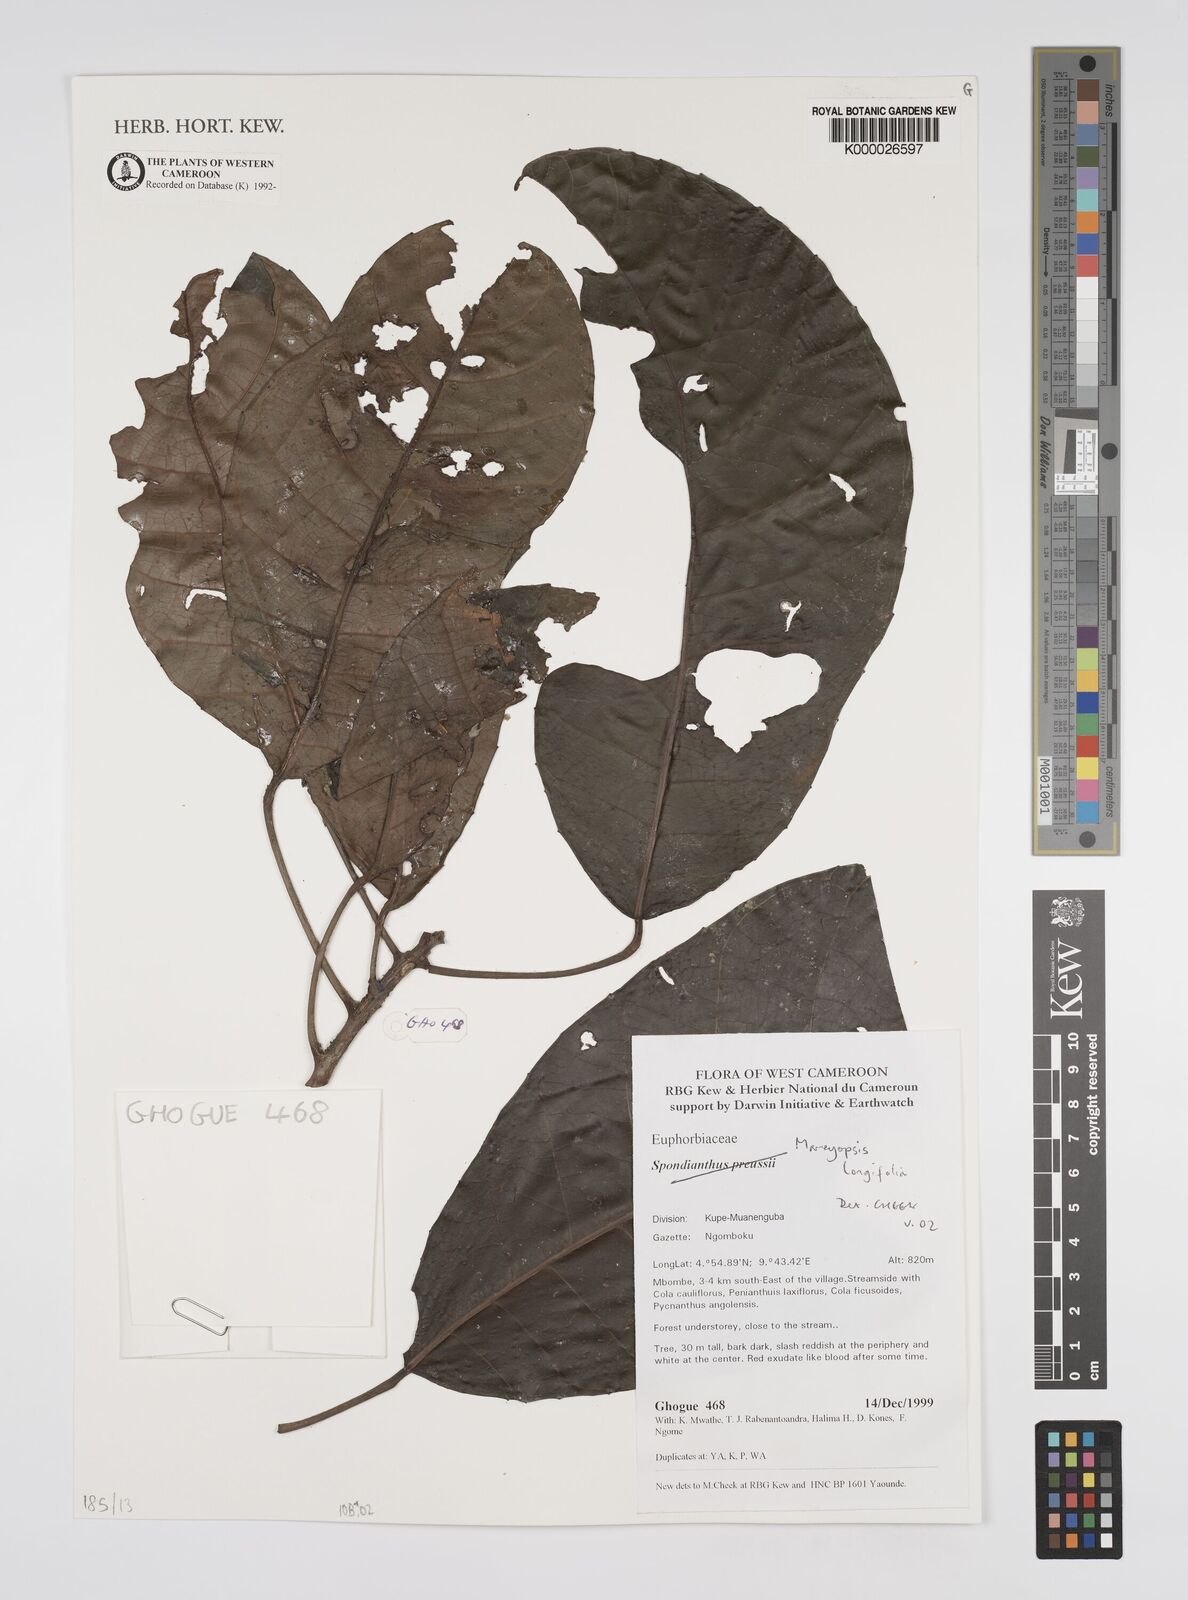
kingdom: Plantae
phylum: Tracheophyta
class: Magnoliopsida
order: Malpighiales
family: Euphorbiaceae
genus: Mareyopsis
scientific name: Mareyopsis longifolia
